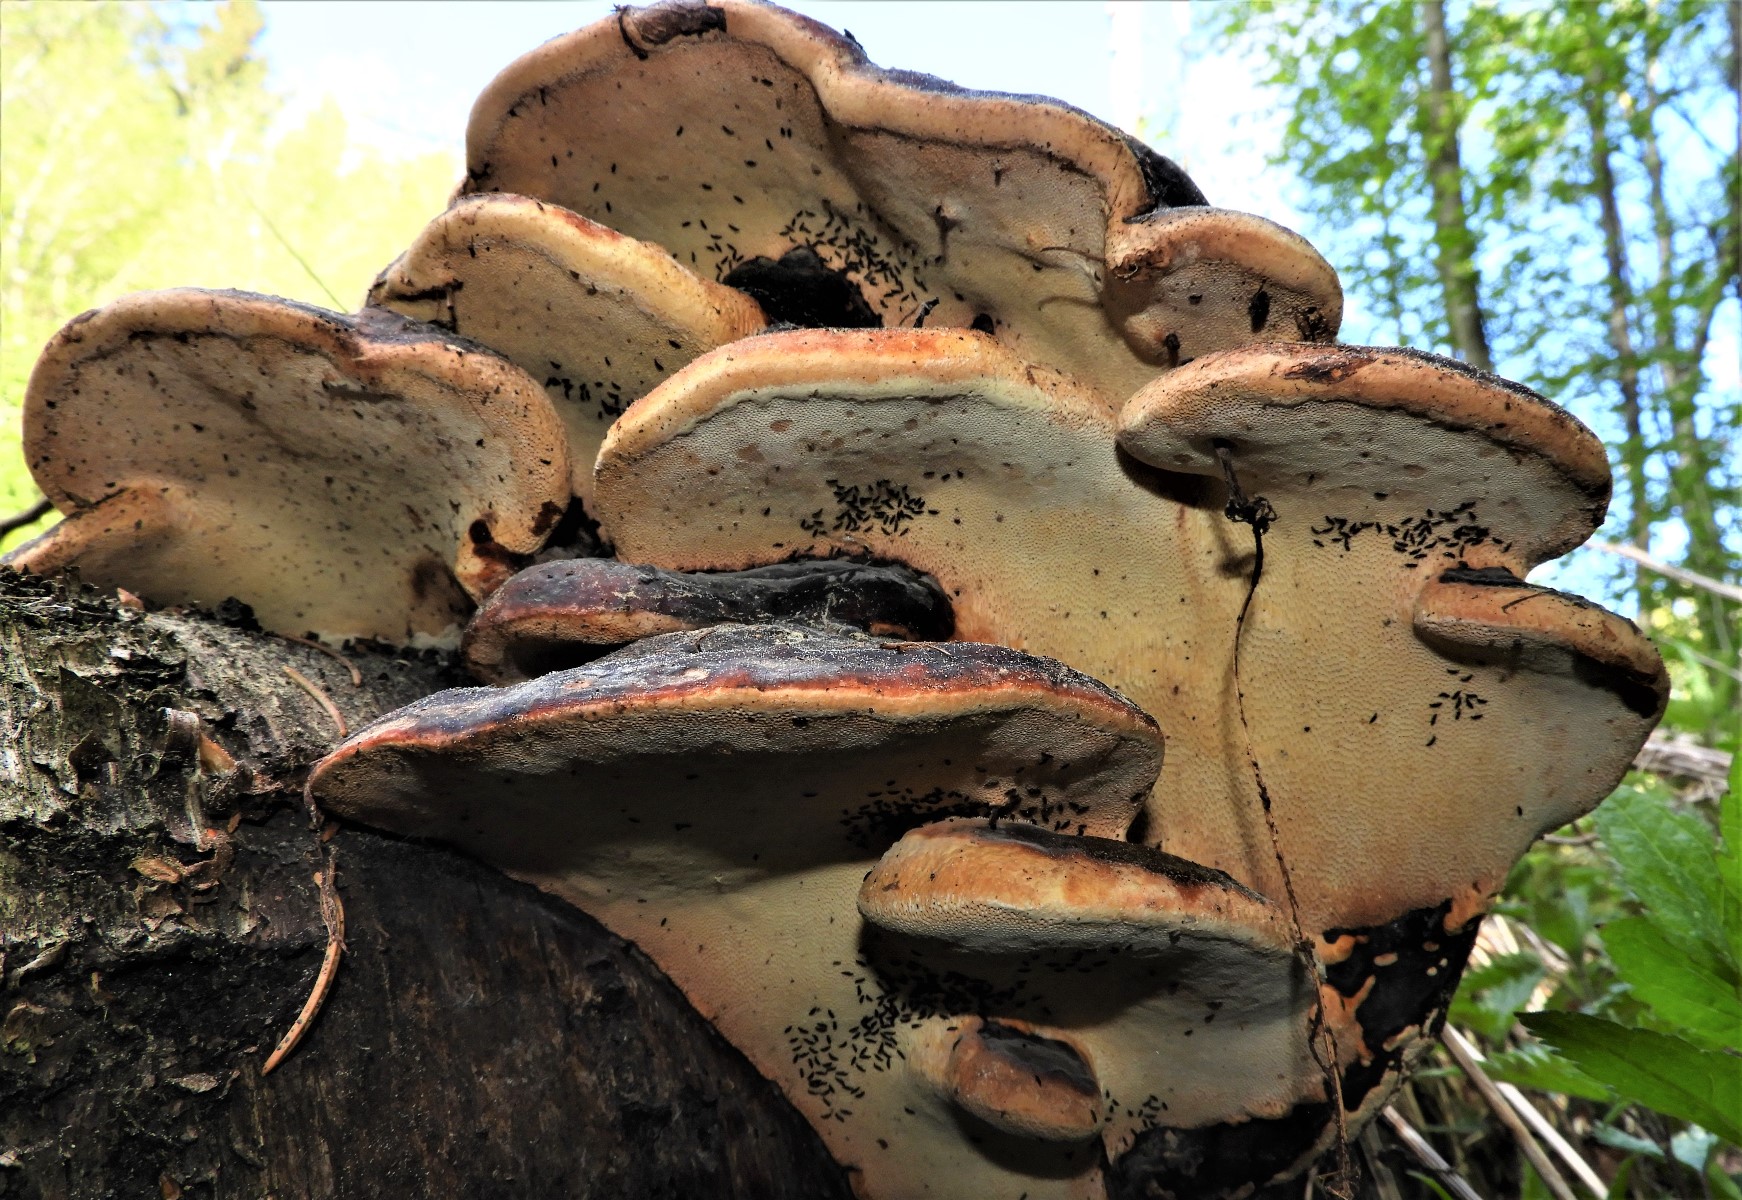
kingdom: Fungi
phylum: Basidiomycota
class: Agaricomycetes
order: Polyporales
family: Fomitopsidaceae
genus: Fomitopsis
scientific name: Fomitopsis pinicola
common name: randbæltet hovporesvamp
